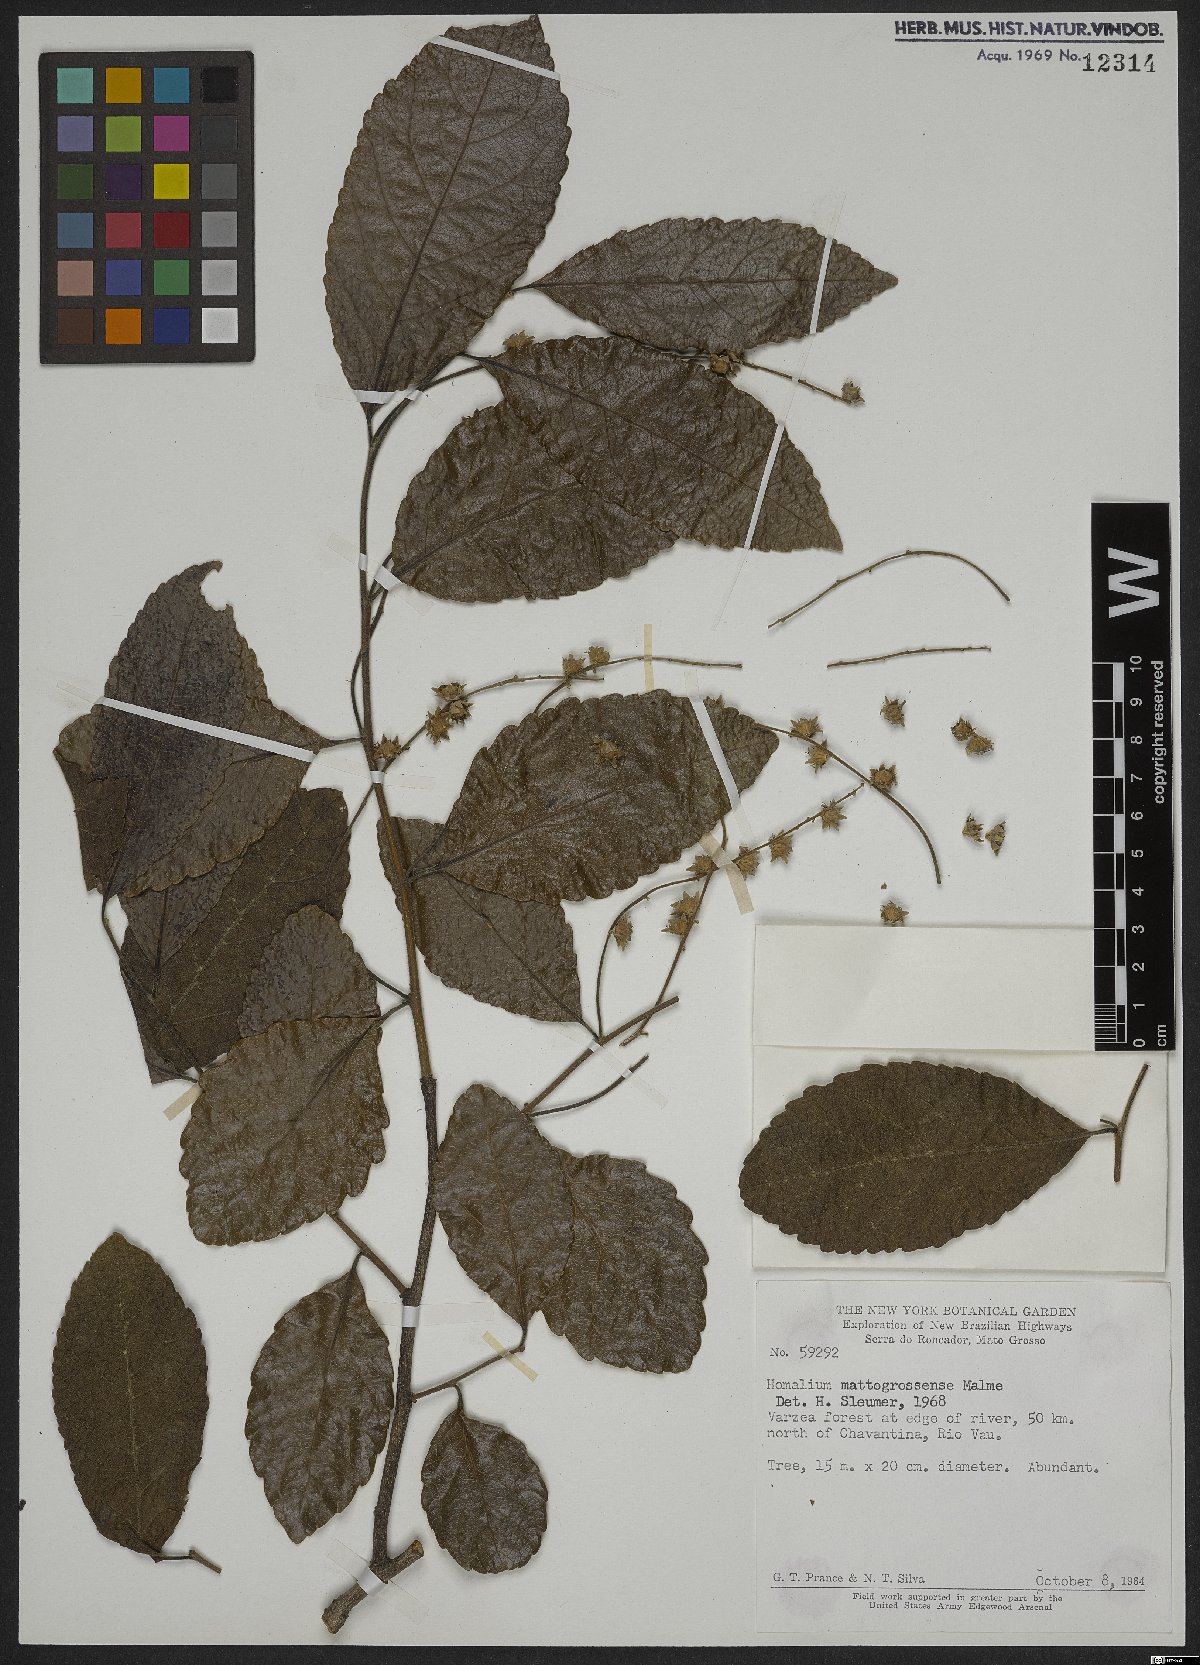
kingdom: Plantae
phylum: Tracheophyta
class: Magnoliopsida
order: Malpighiales
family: Salicaceae
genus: Homalium
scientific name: Homalium guianense
